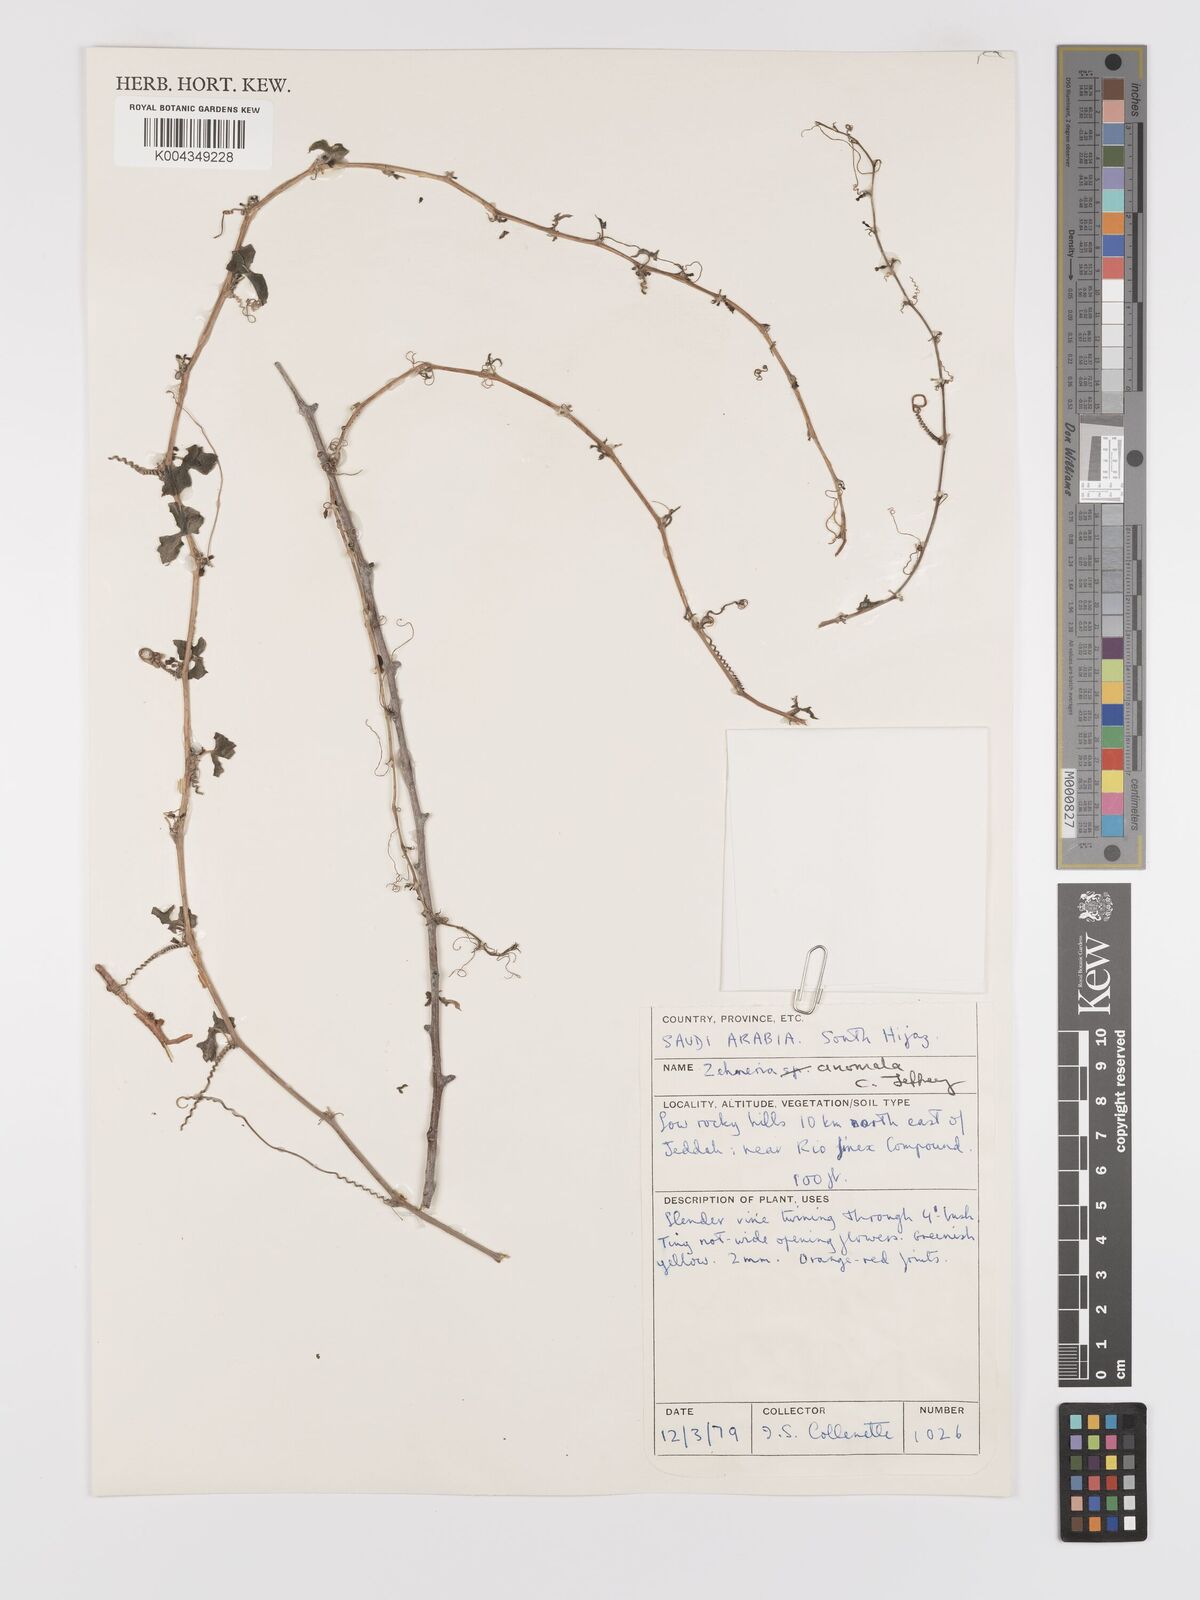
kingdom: Plantae
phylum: Tracheophyta
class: Magnoliopsida
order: Cucurbitales
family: Cucurbitaceae
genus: Zehneria
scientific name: Zehneria anomala
